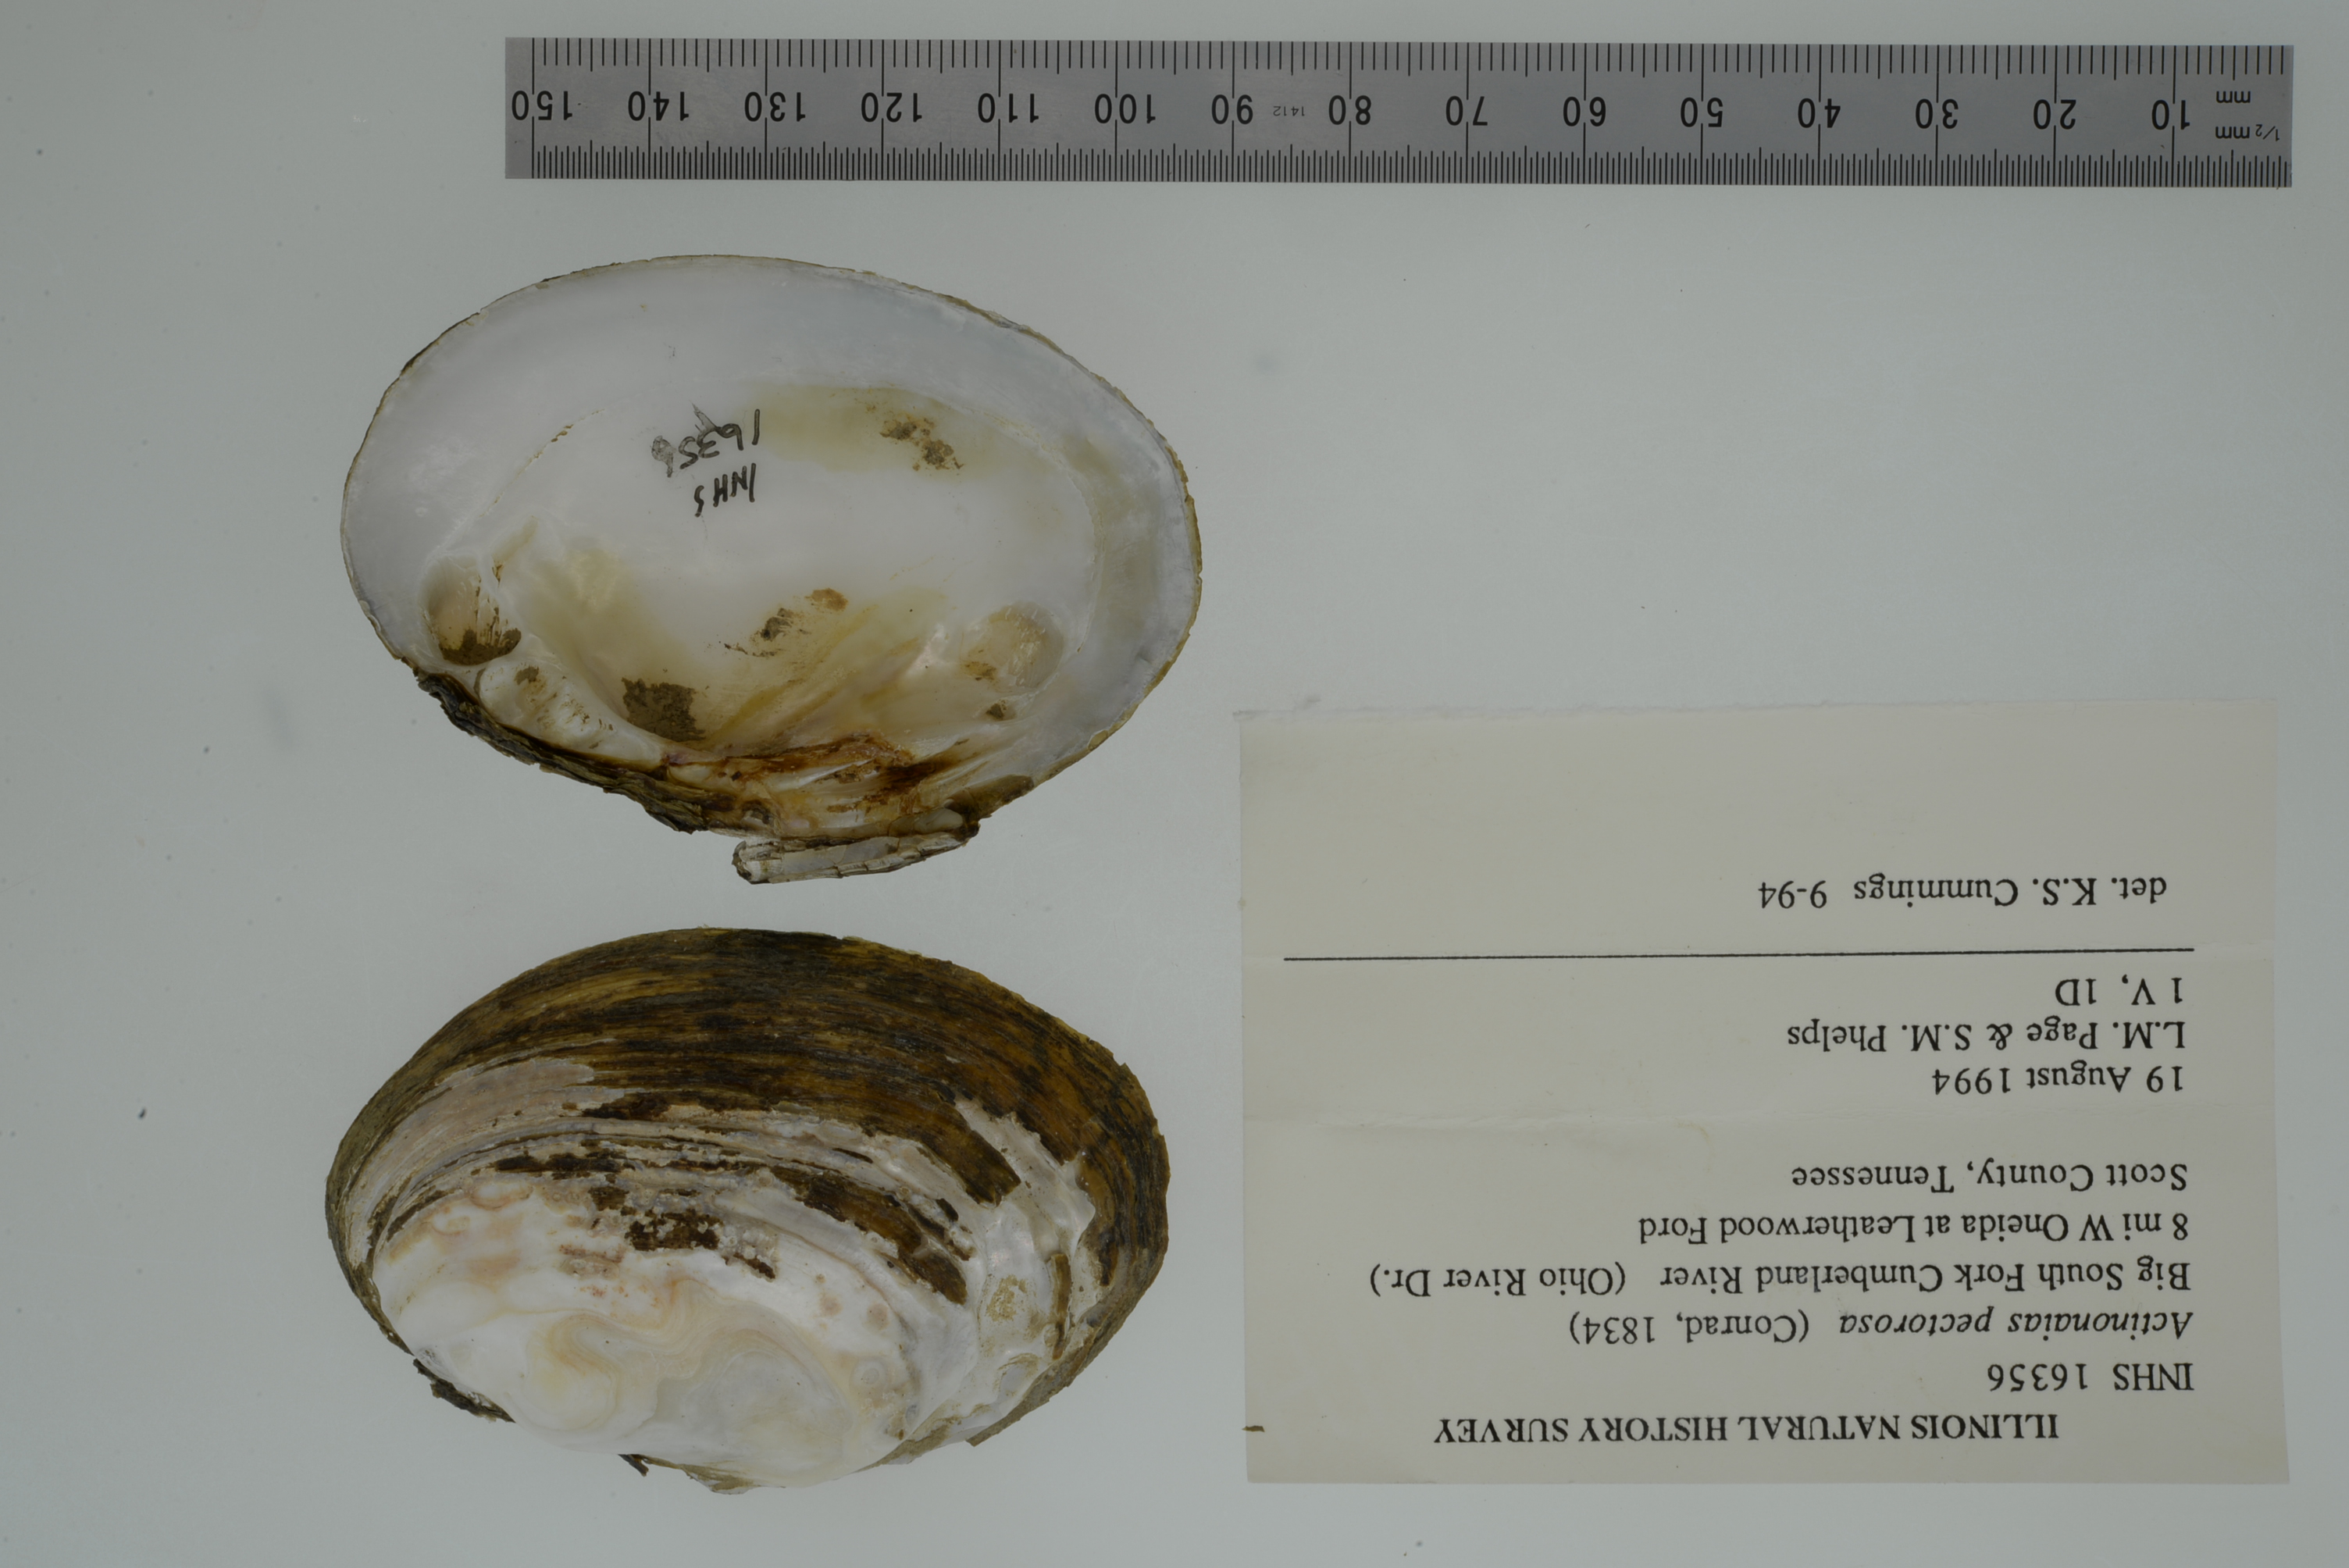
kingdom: Animalia
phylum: Mollusca
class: Bivalvia
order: Unionida
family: Unionidae
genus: Ortmanniana
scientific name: Ortmanniana pectorosa
